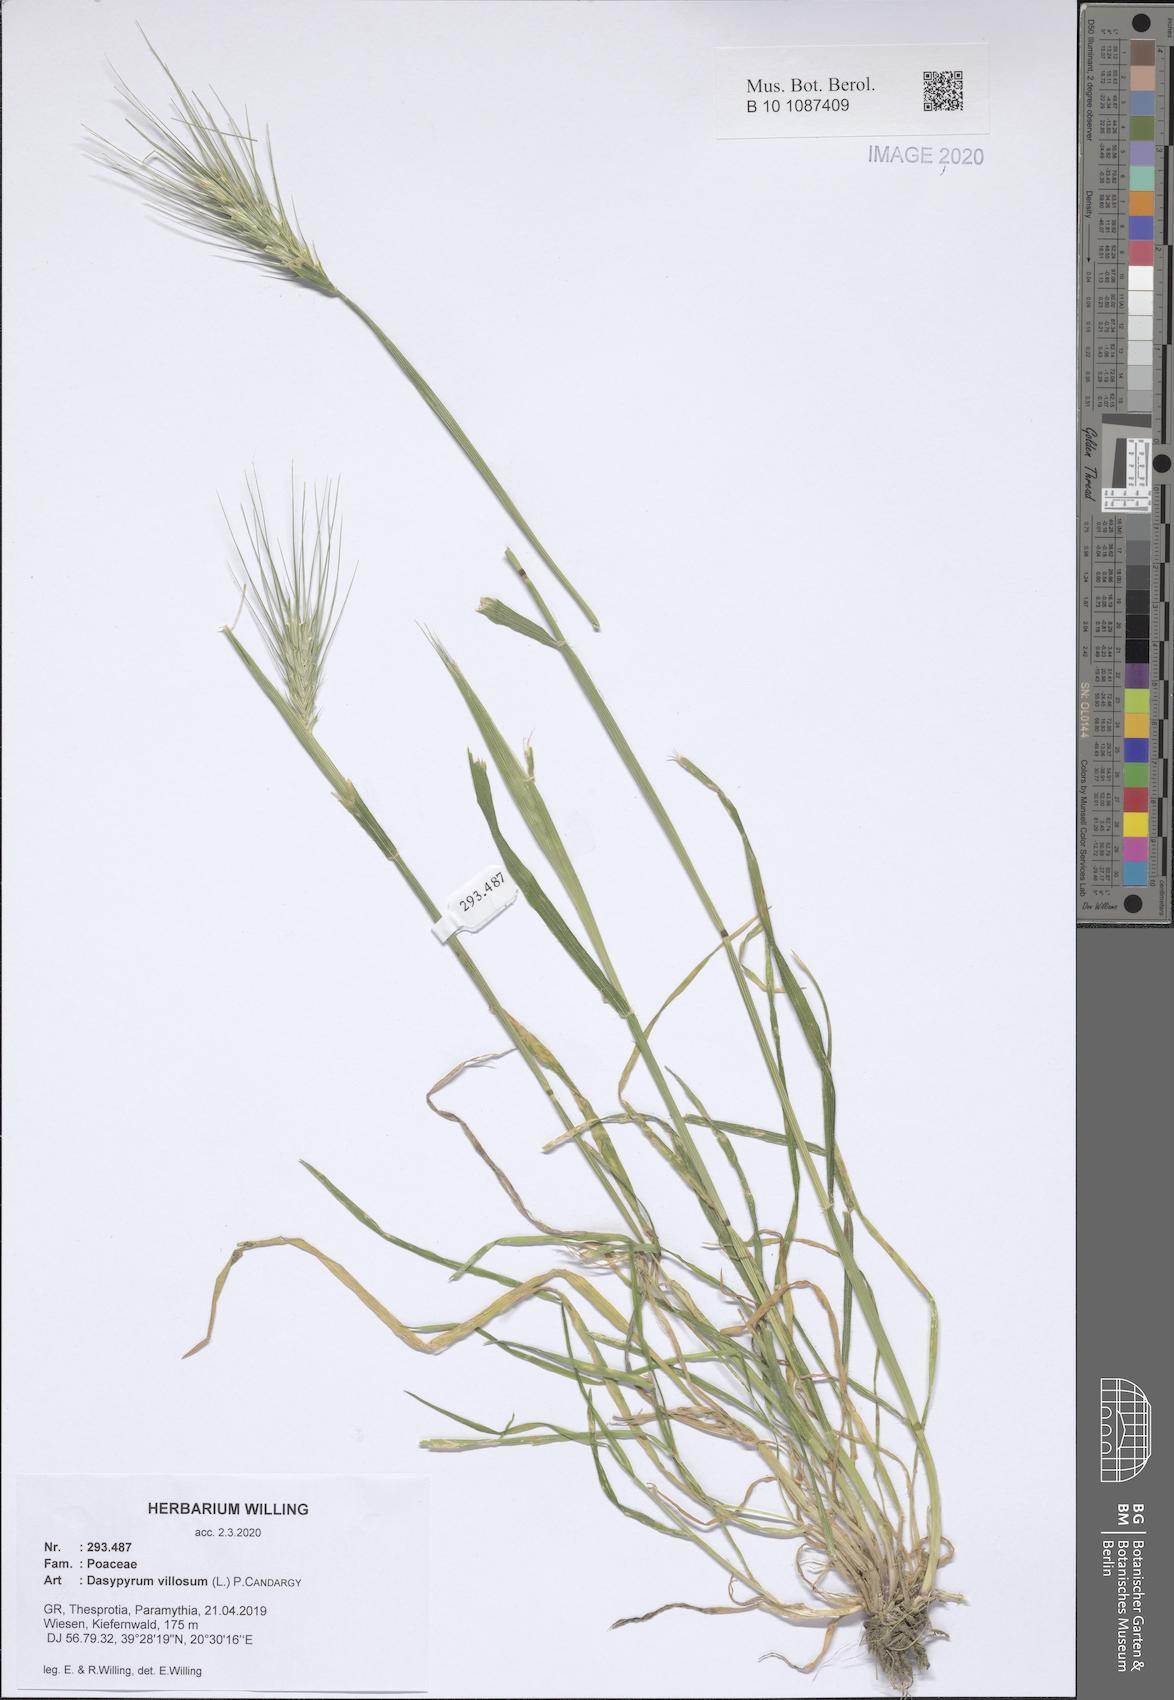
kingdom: Plantae
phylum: Tracheophyta
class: Liliopsida
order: Poales
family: Poaceae
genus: Dasypyrum
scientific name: Dasypyrum villosum
